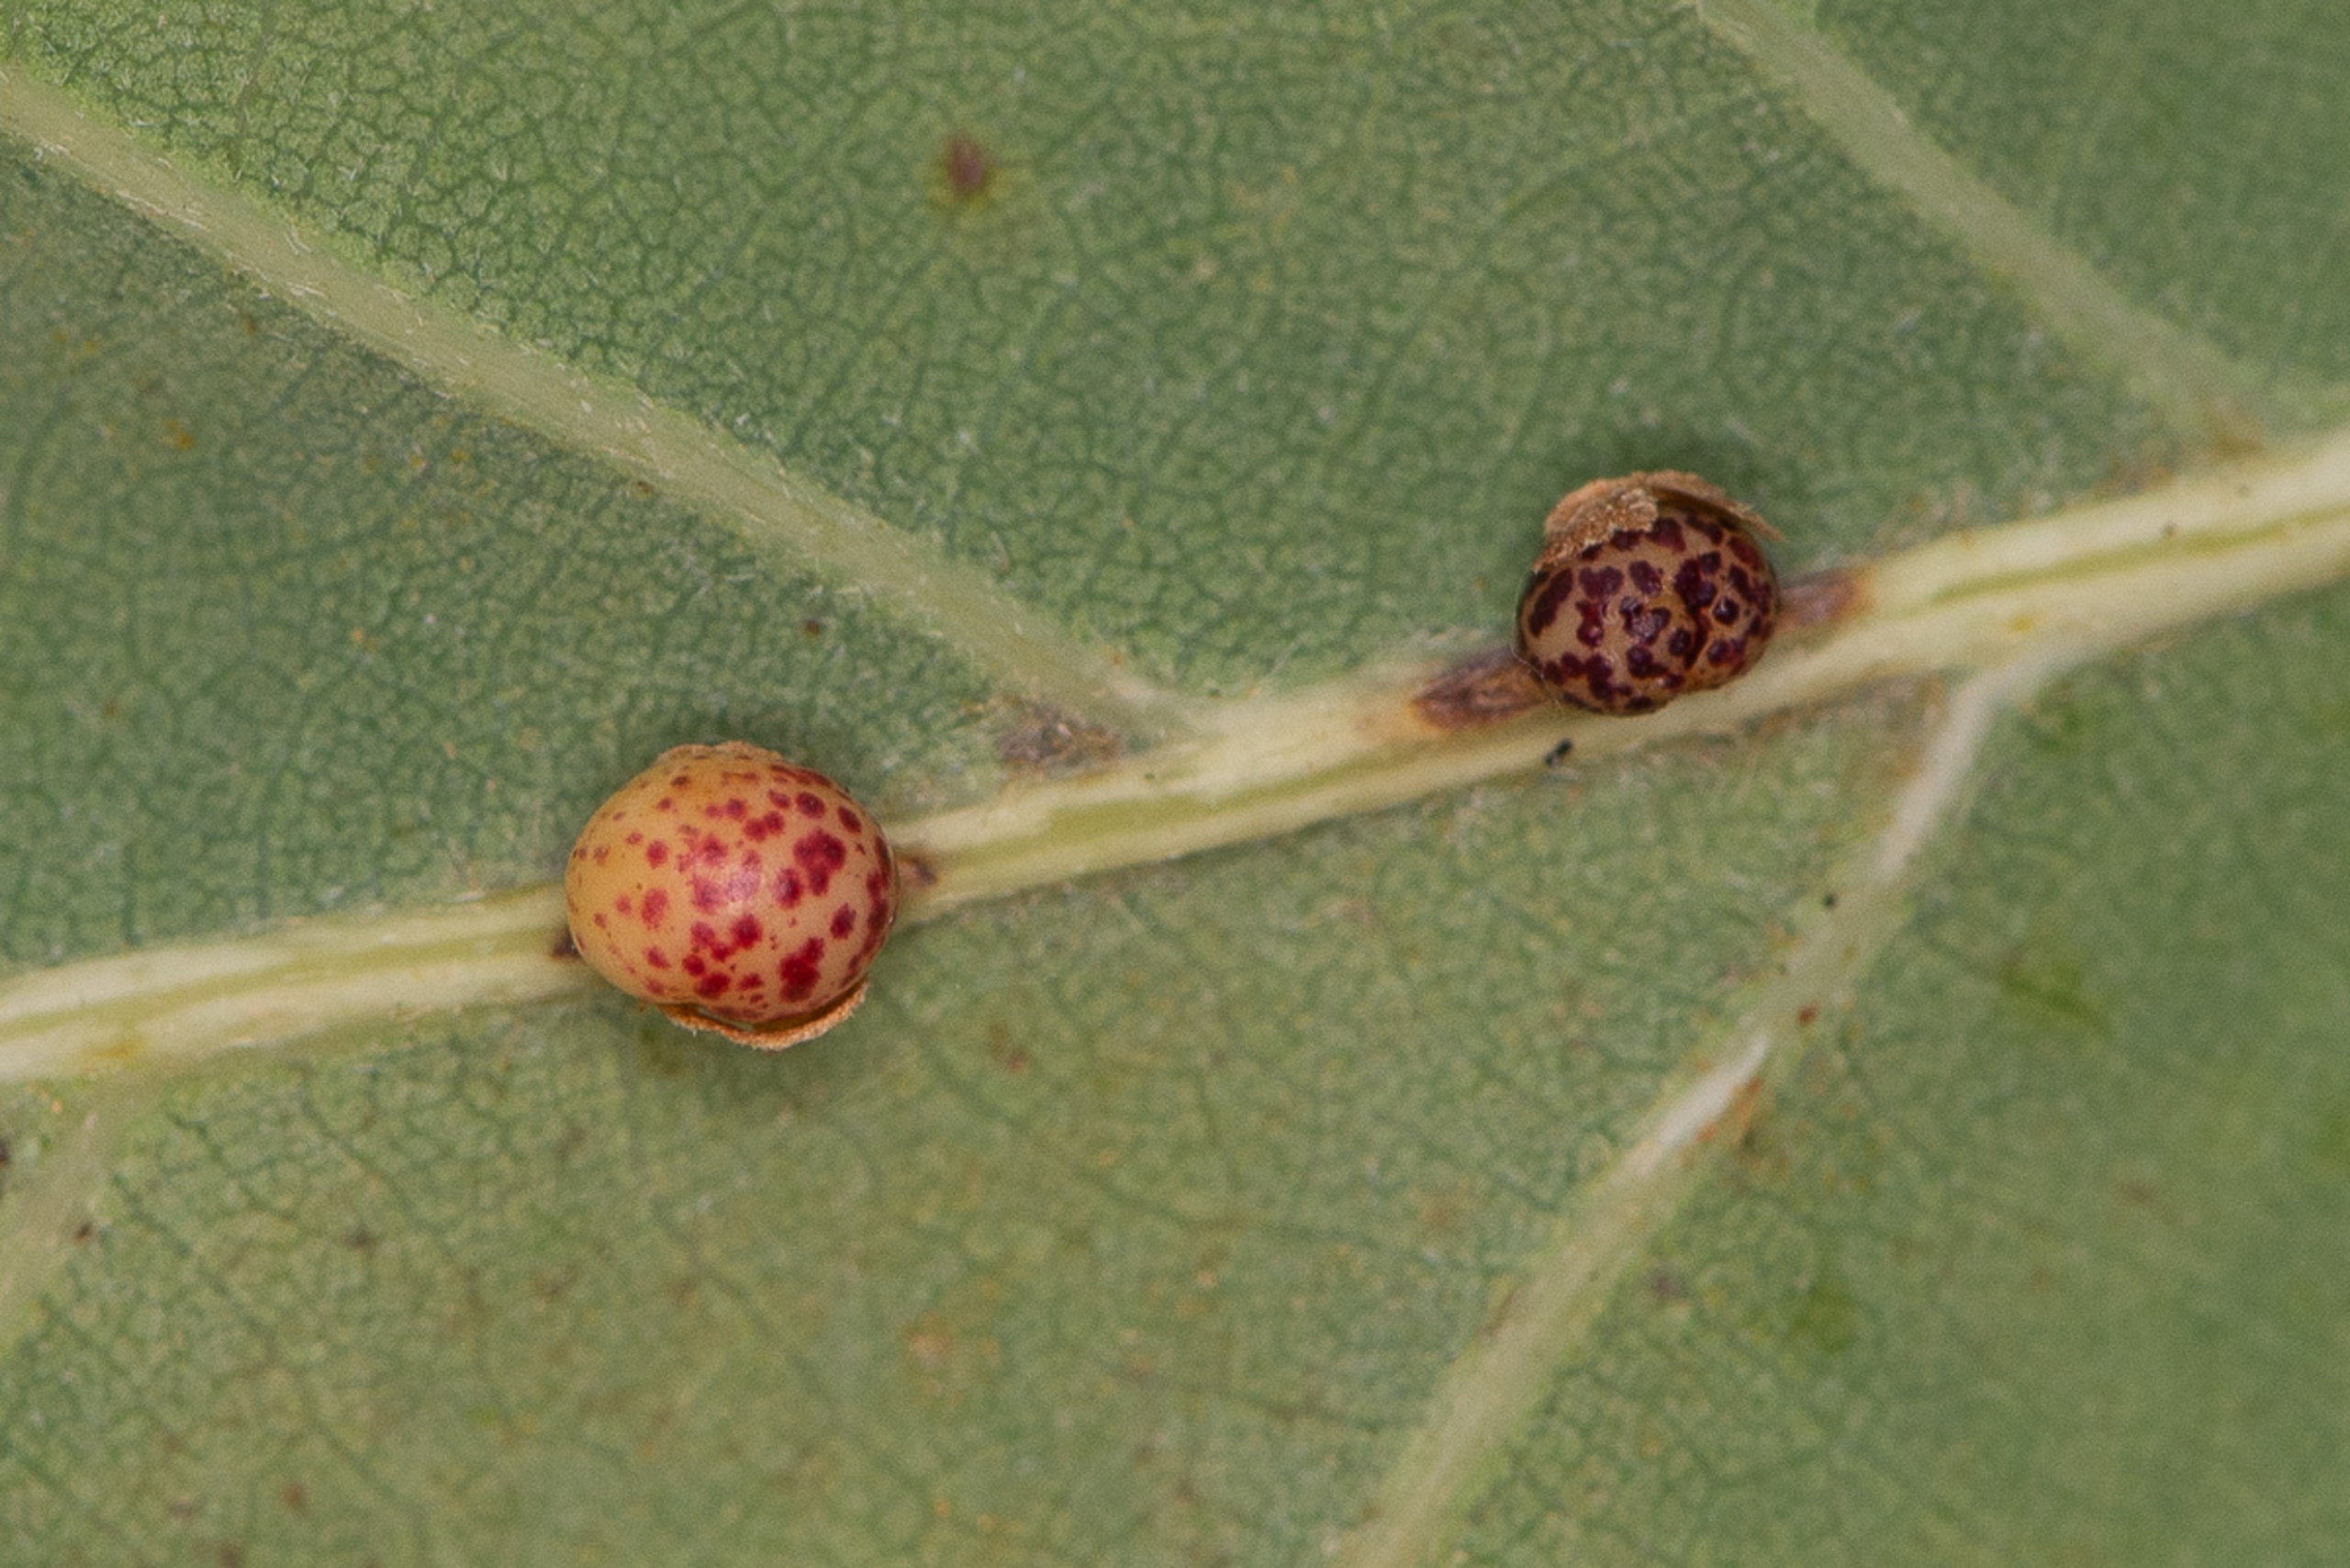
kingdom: Animalia
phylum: Arthropoda
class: Insecta
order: Hymenoptera
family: Cynipidae
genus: Neuroterus
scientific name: Neuroterus anthracinus
